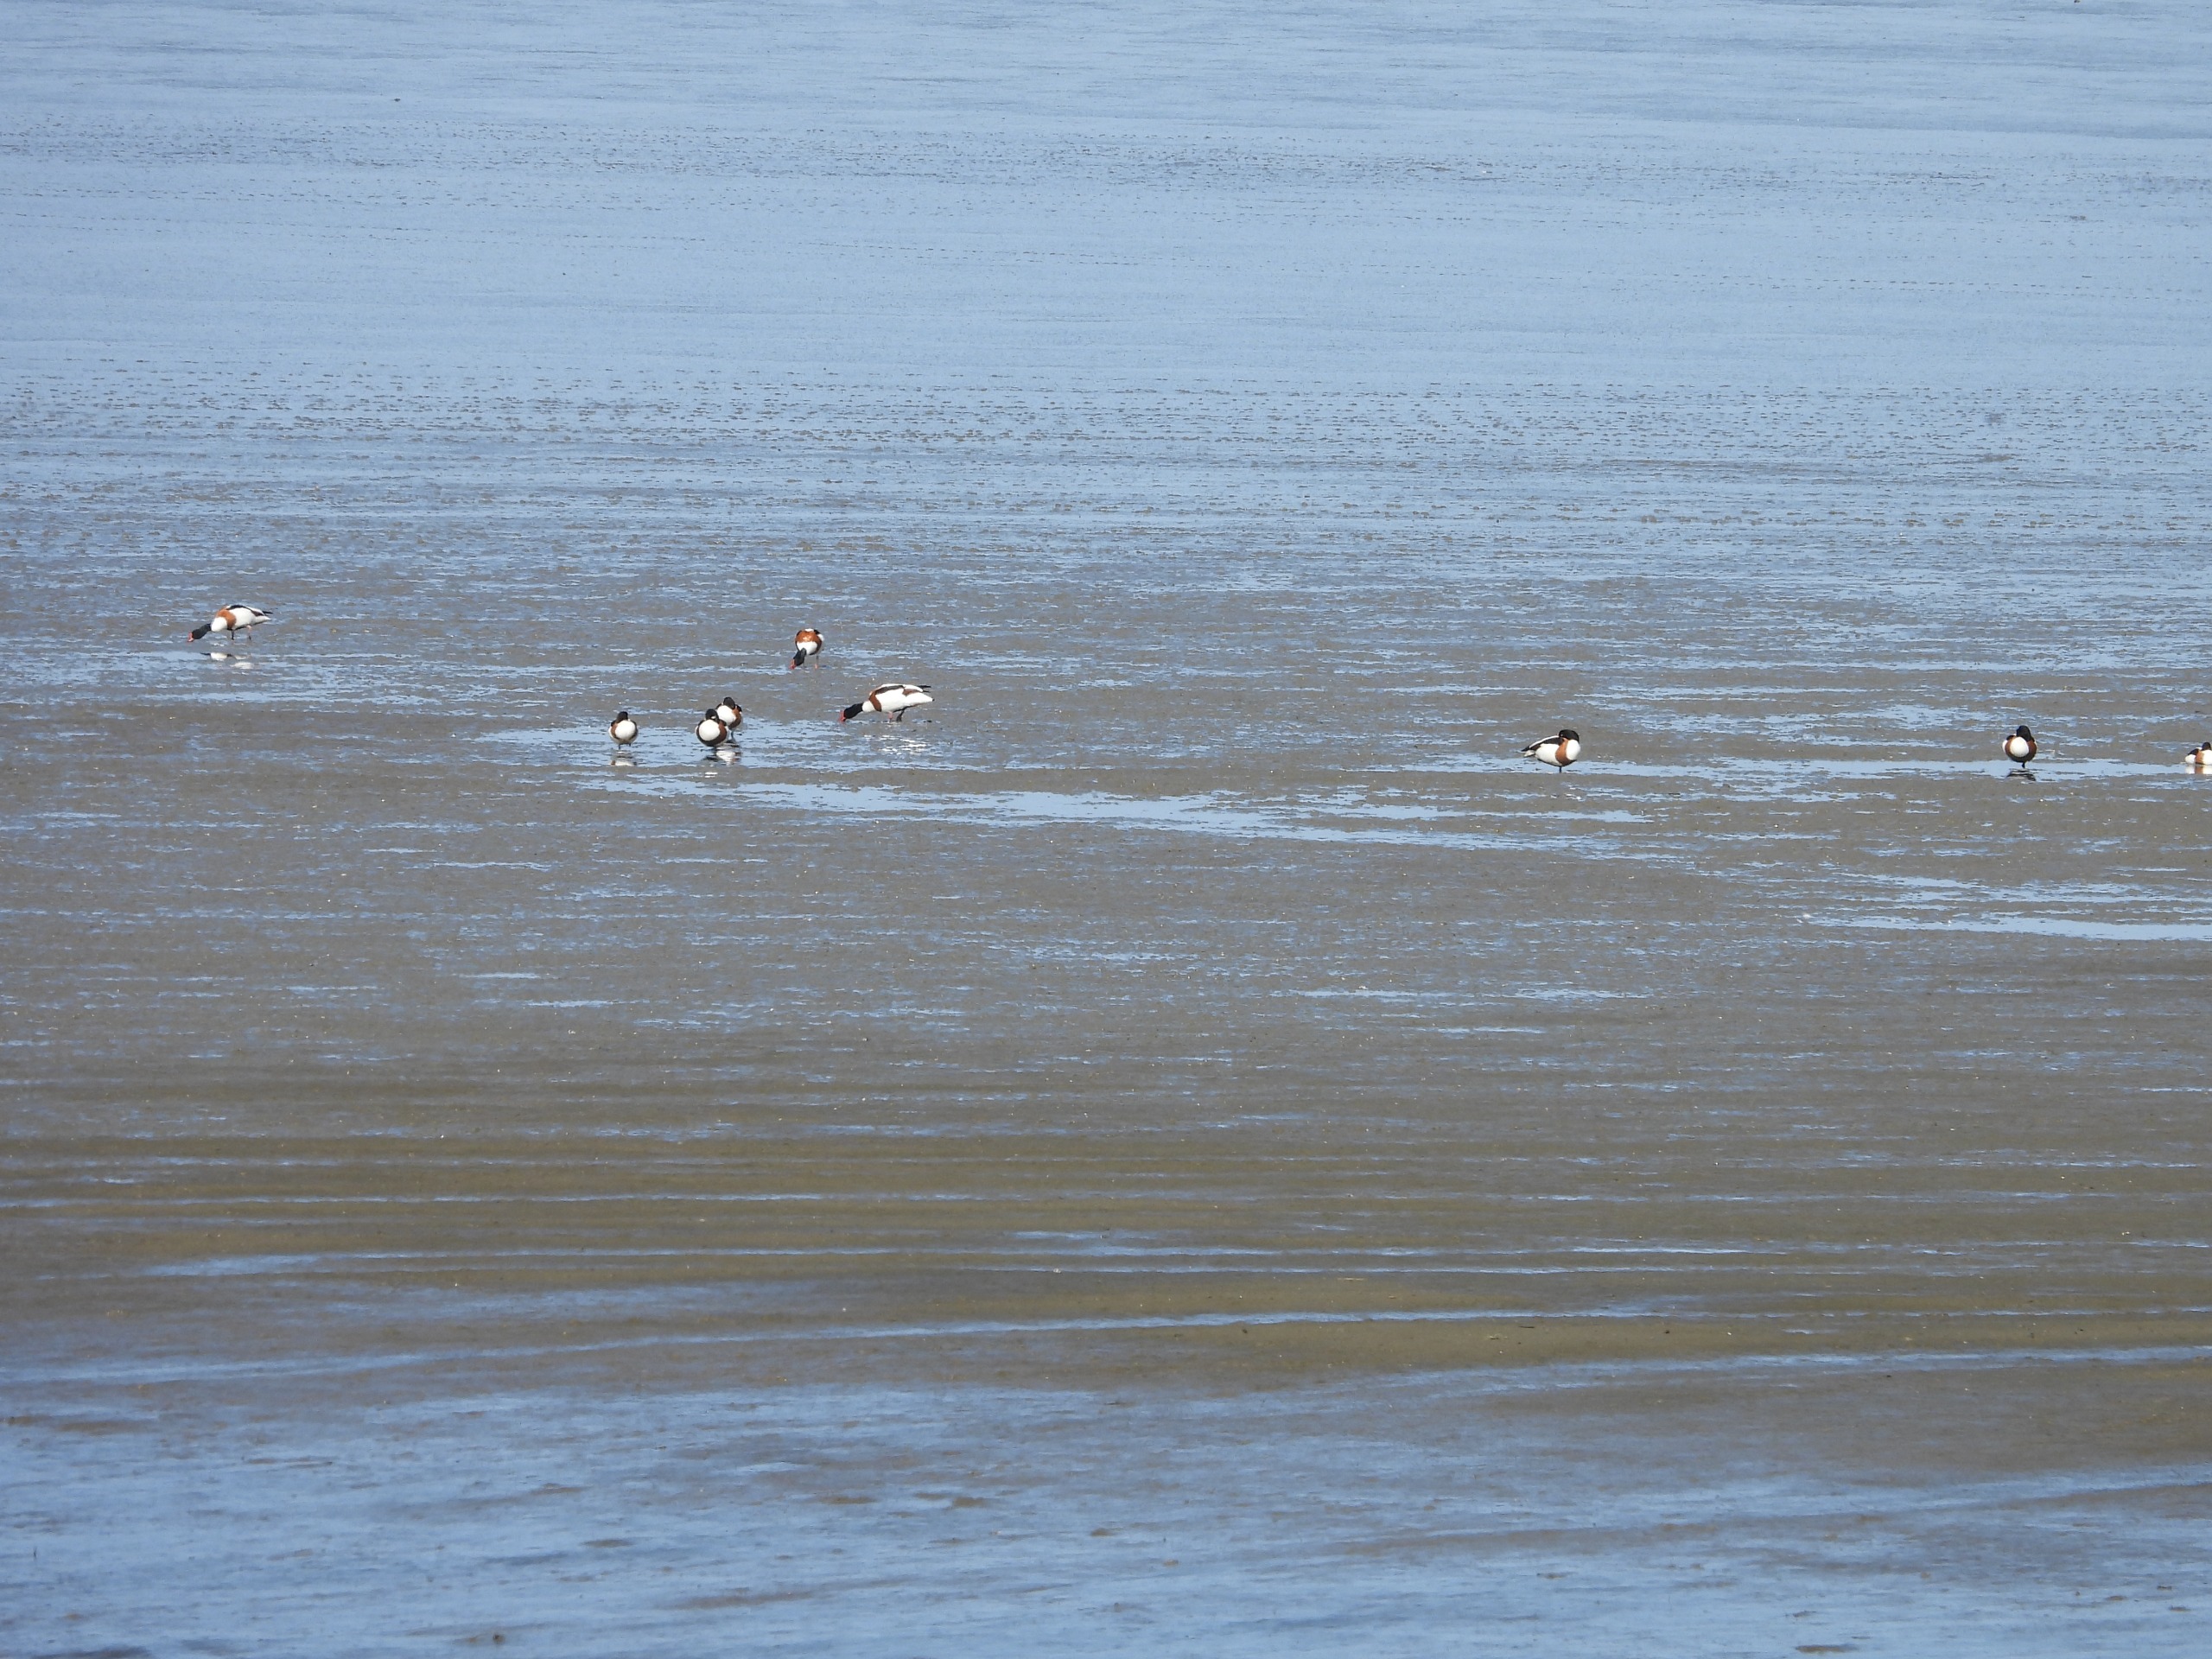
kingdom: Animalia
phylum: Chordata
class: Aves
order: Anseriformes
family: Anatidae
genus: Tadorna
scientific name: Tadorna tadorna
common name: Gravand
